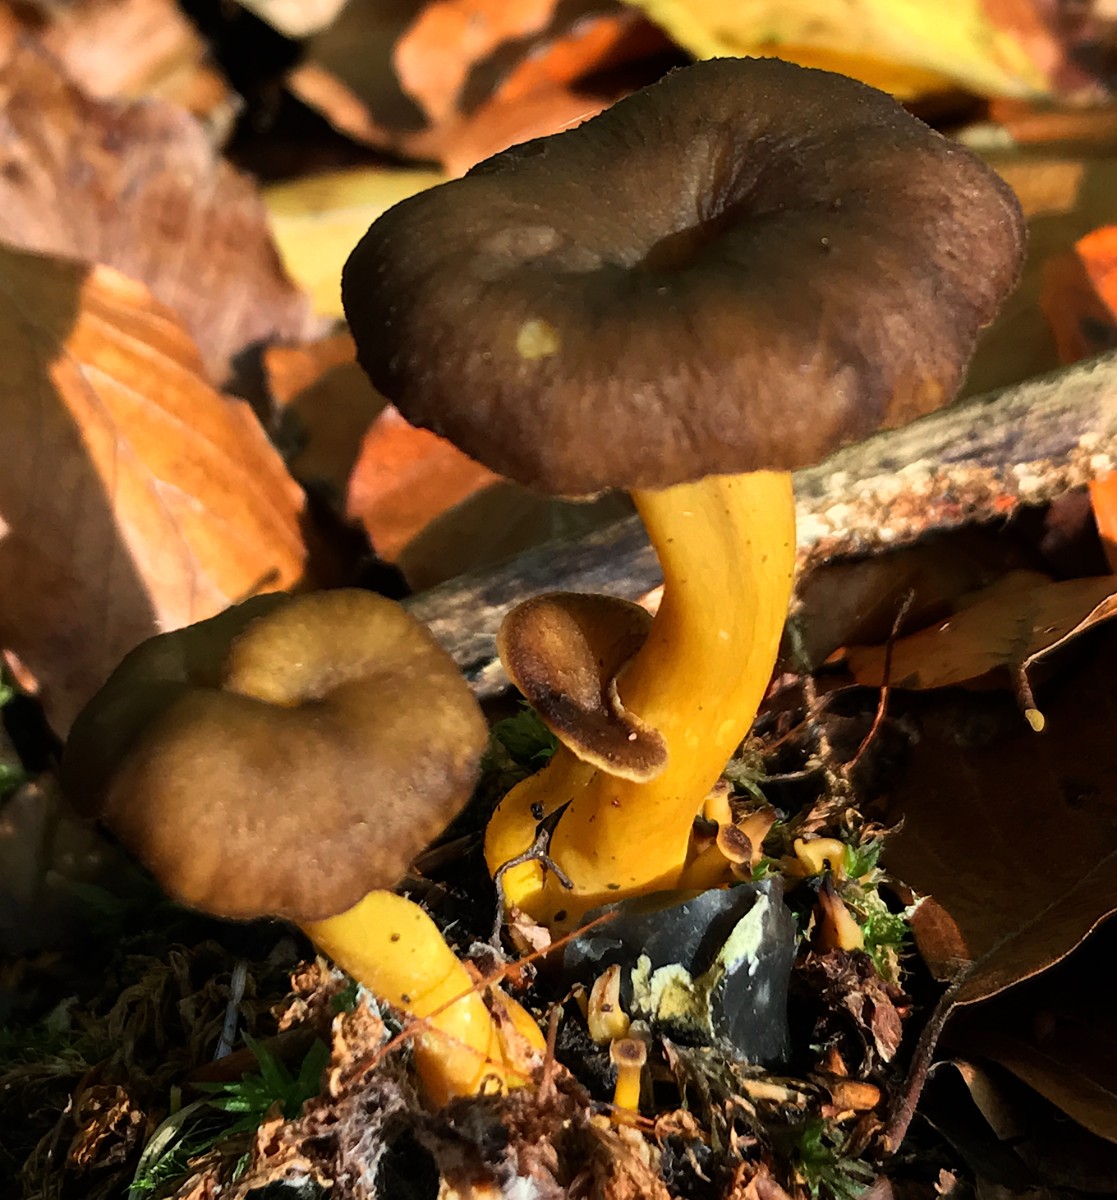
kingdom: Fungi
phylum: Basidiomycota
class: Agaricomycetes
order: Cantharellales
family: Hydnaceae
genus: Craterellus
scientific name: Craterellus tubaeformis
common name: tragt-kantarel
